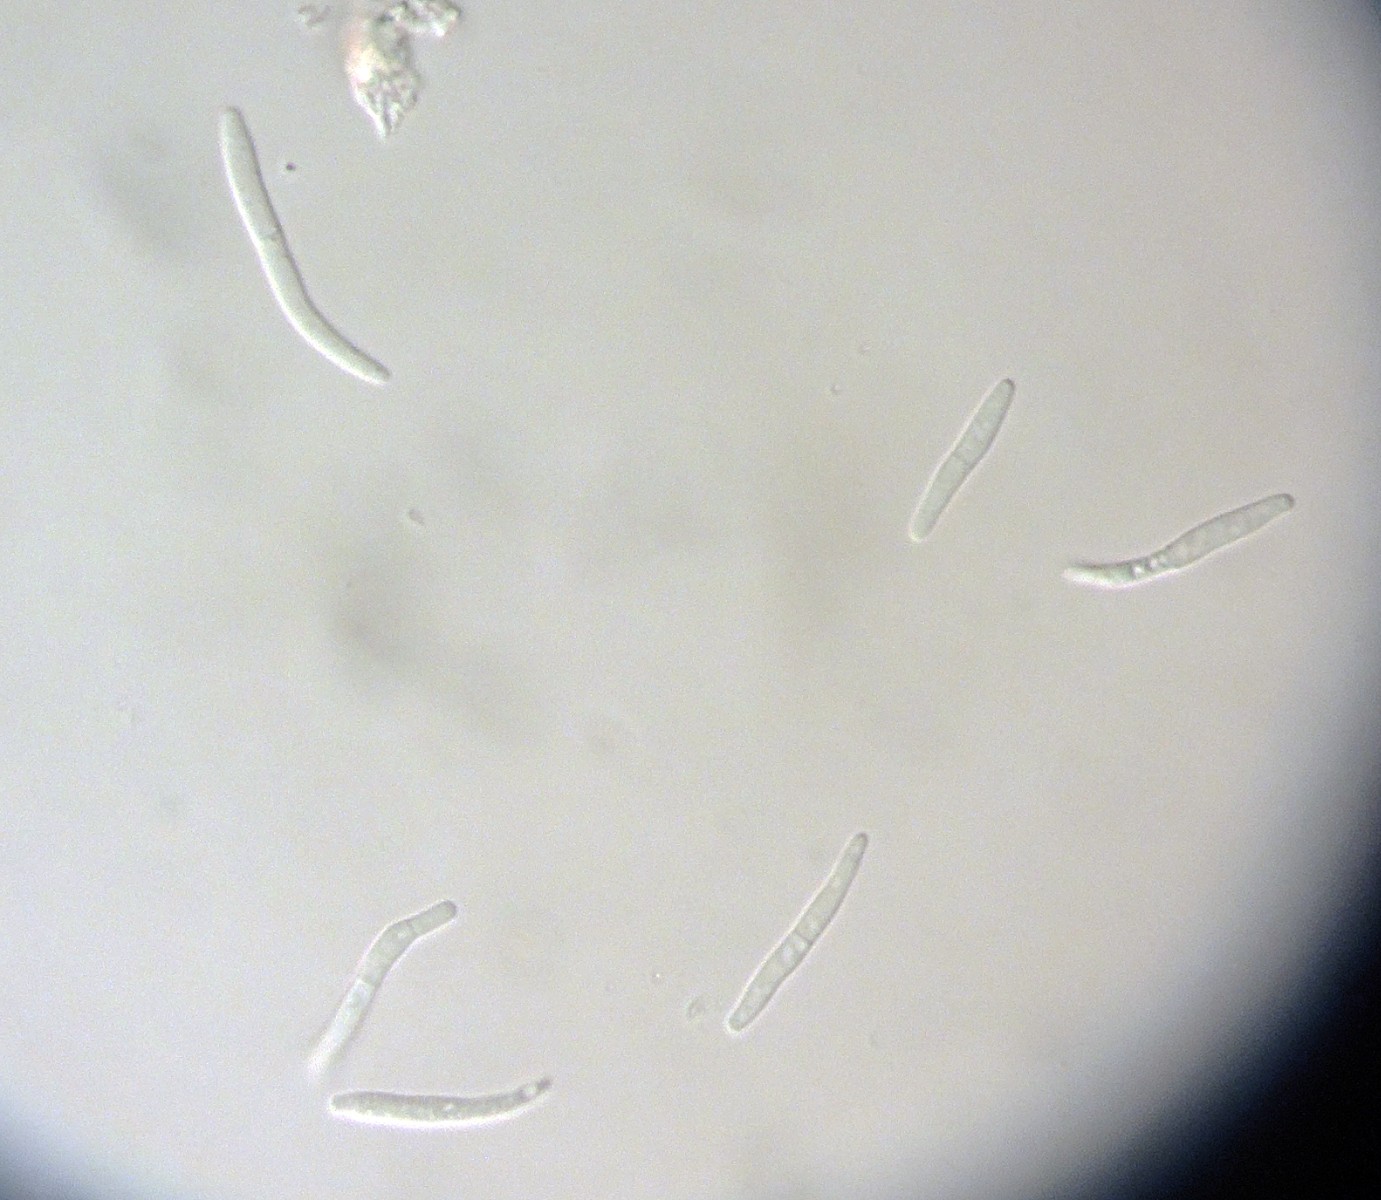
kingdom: Fungi
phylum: Ascomycota
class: Dothideomycetes
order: Capnodiales
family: Mycosphaerellaceae
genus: Septoria
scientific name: Septoria crataegi
